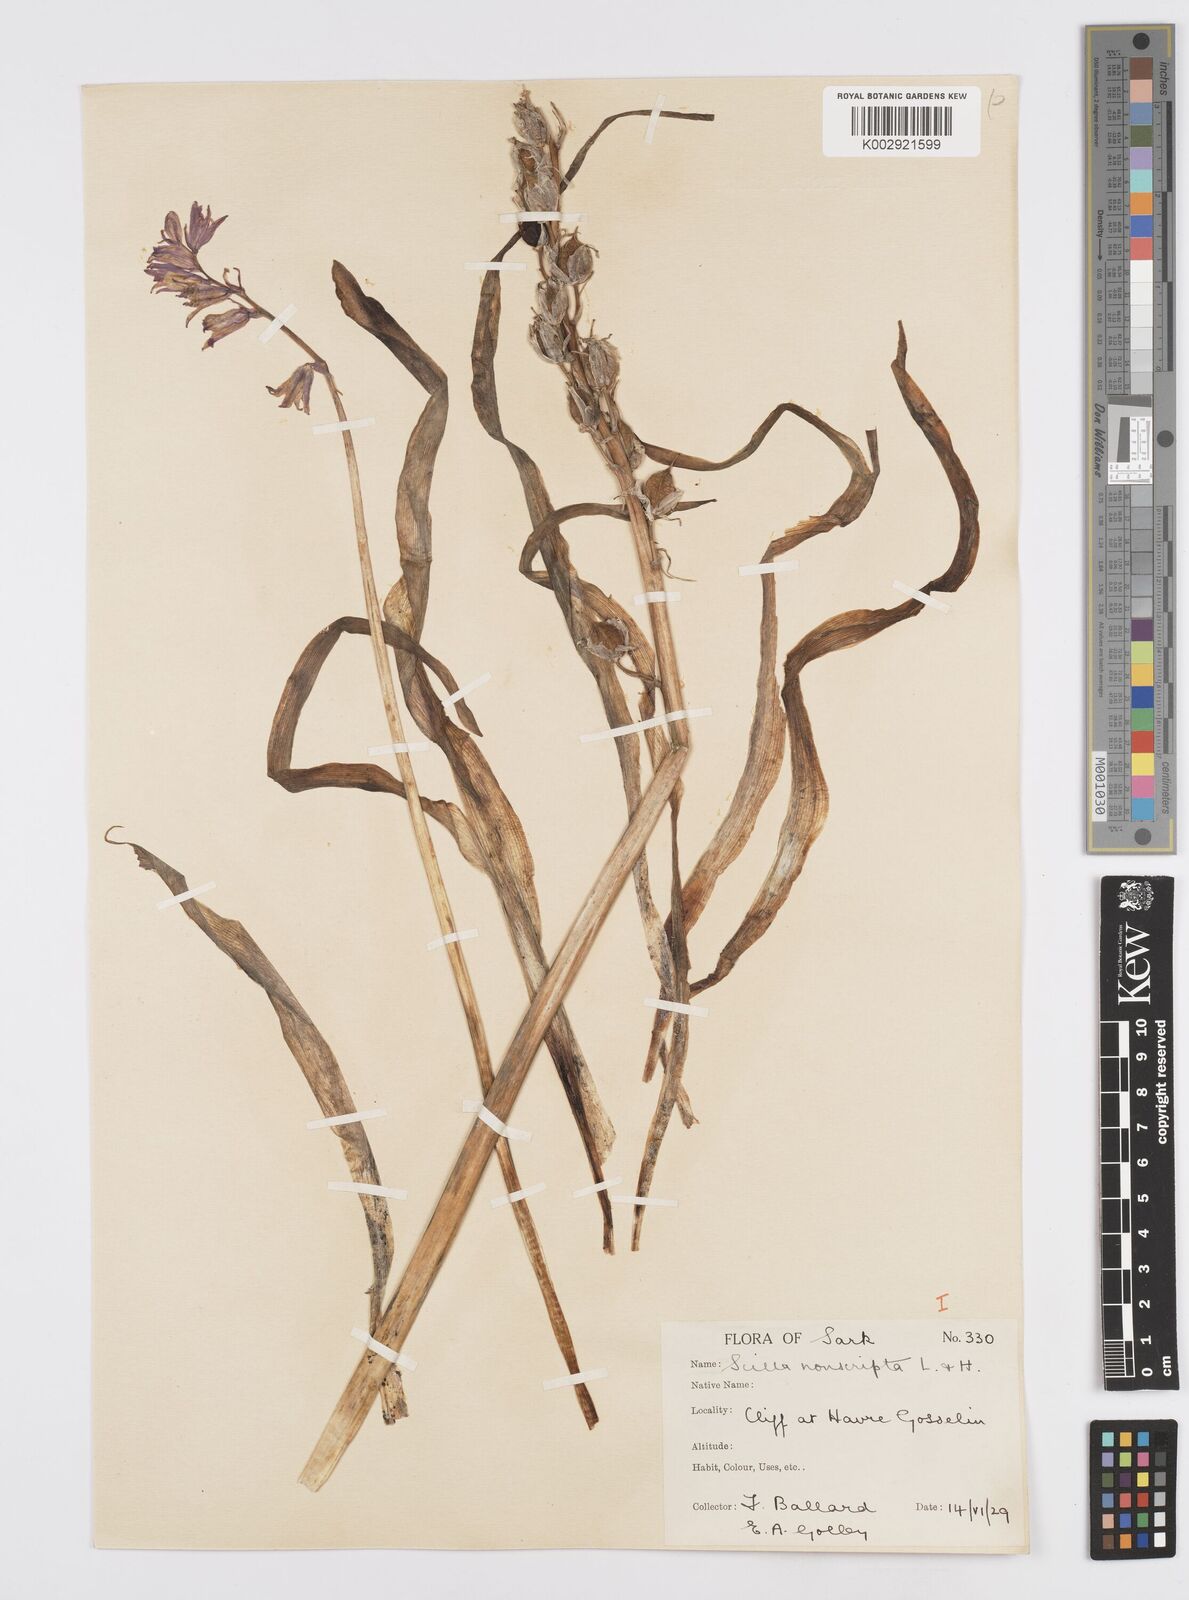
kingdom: Plantae
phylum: Tracheophyta
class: Liliopsida
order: Asparagales
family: Asparagaceae
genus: Hyacinthoides
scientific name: Hyacinthoides non-scripta
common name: Bluebell
